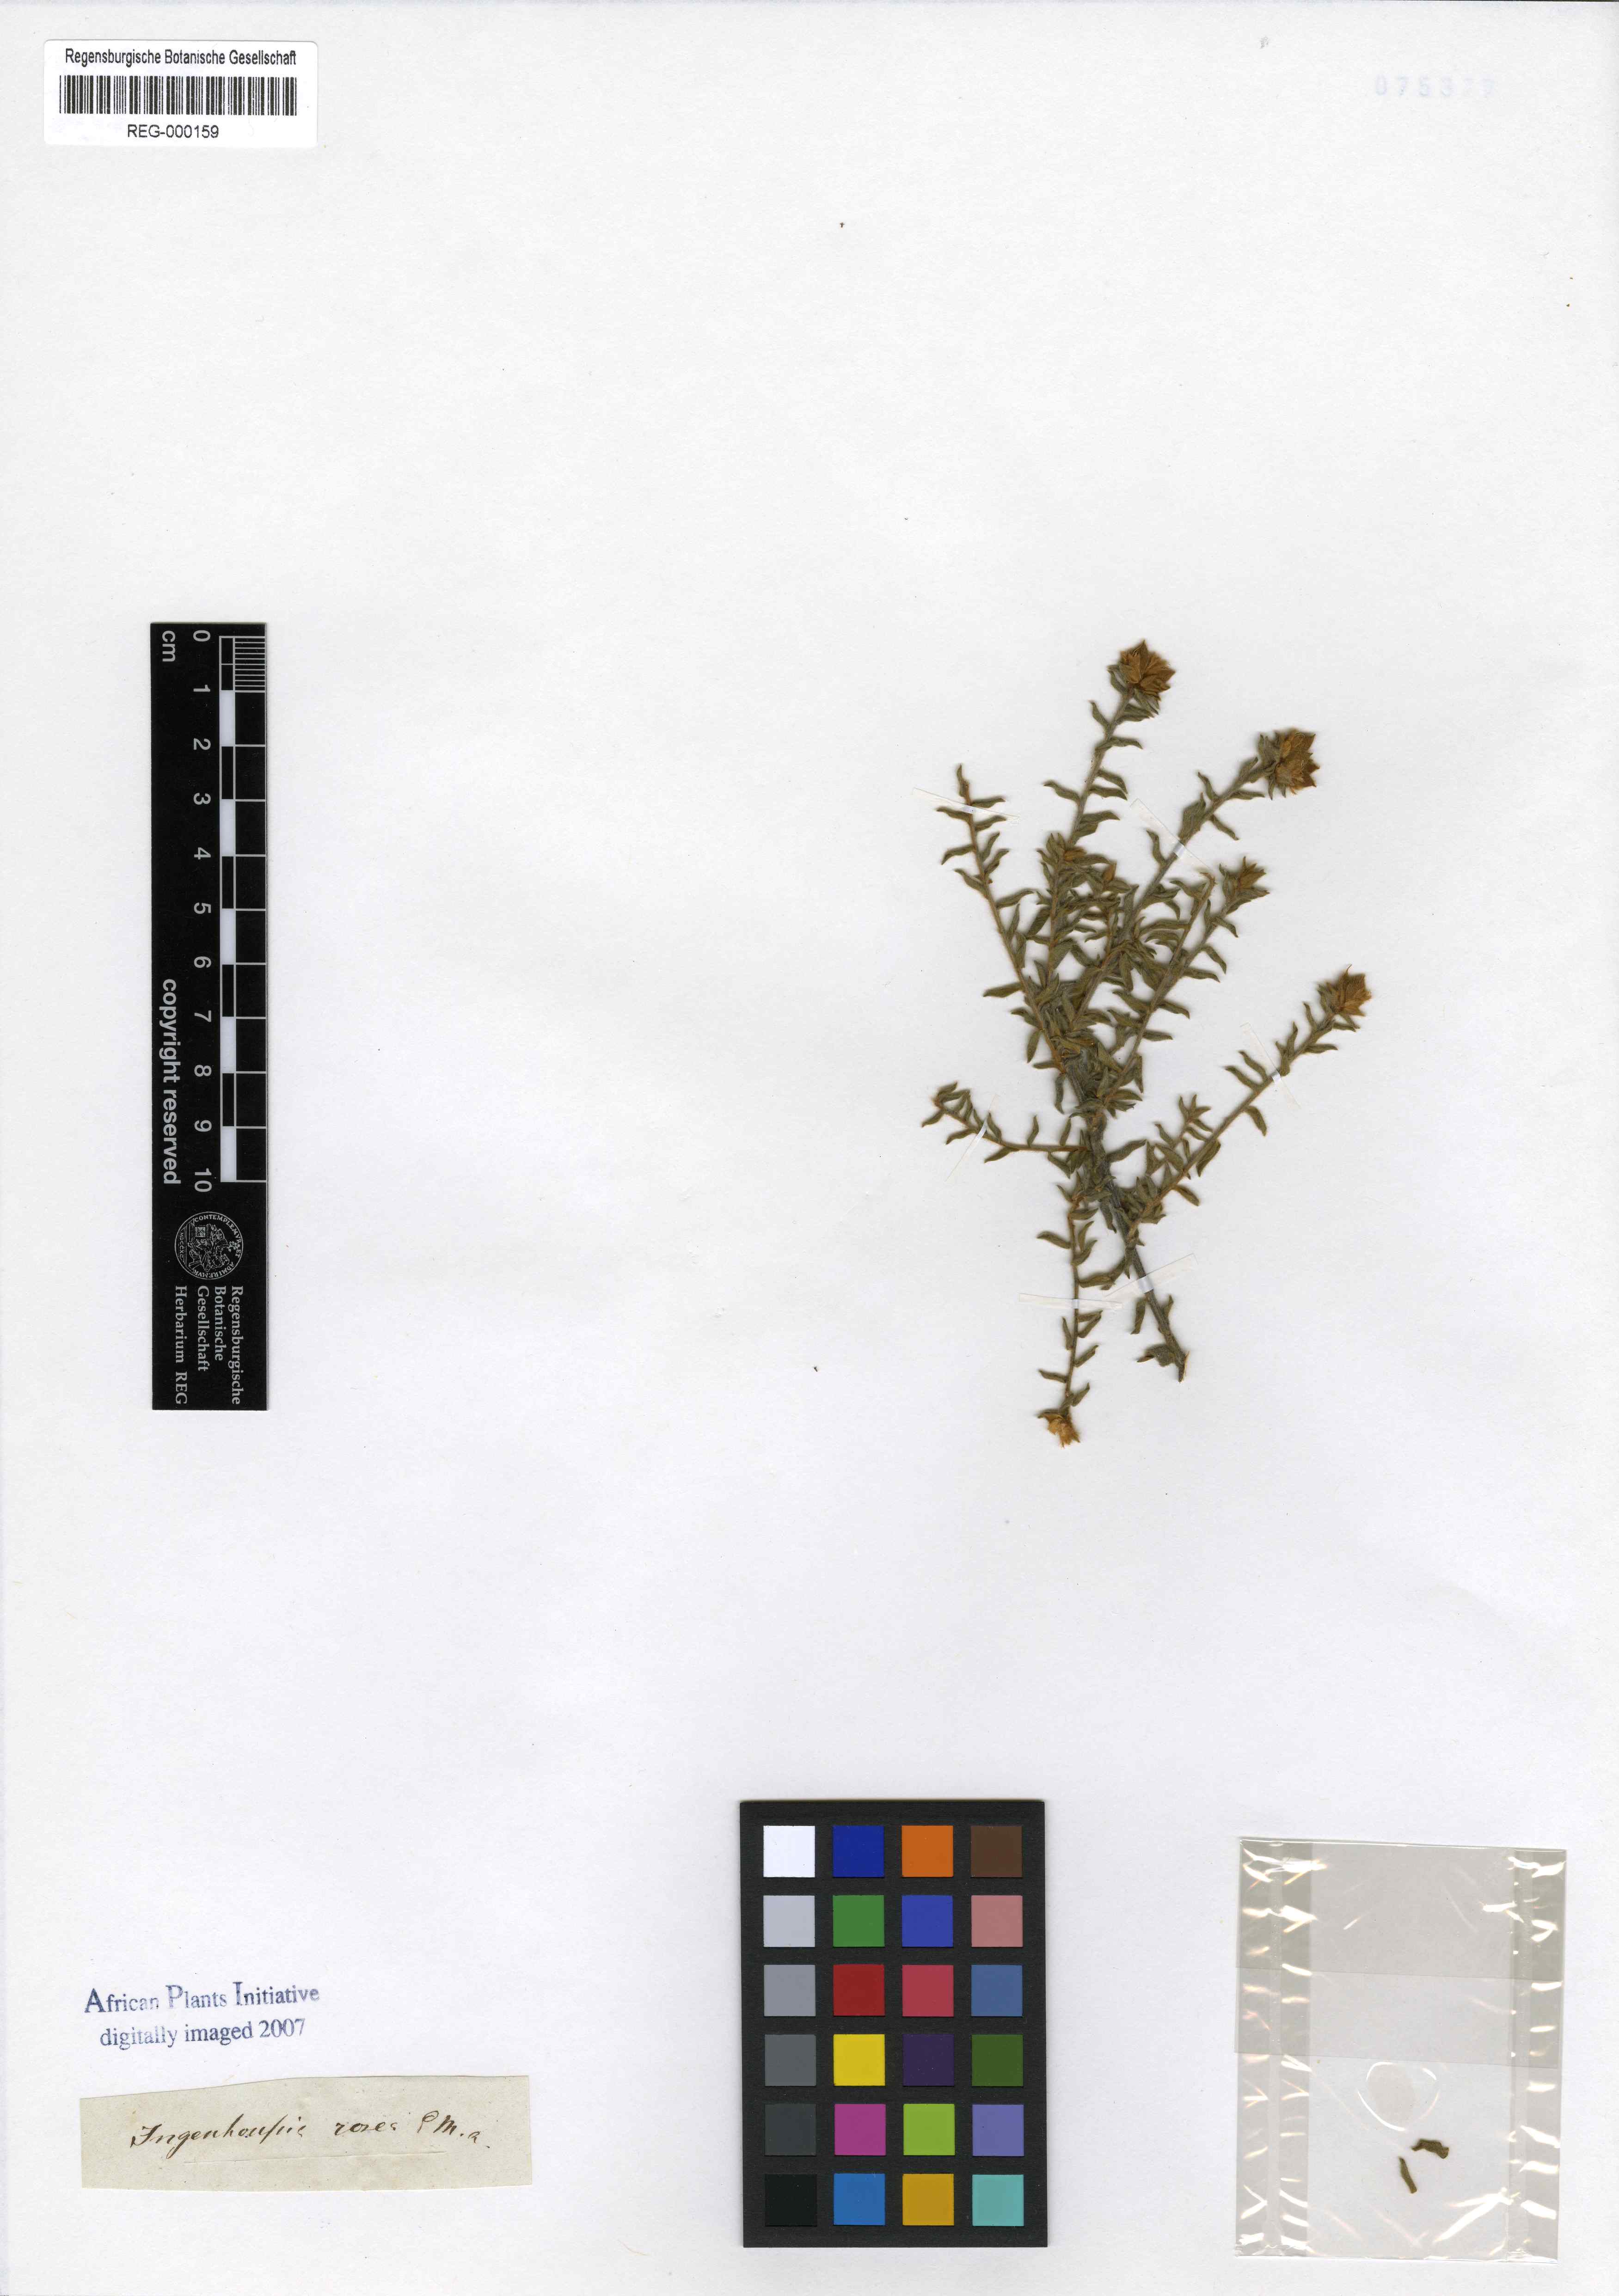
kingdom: Plantae
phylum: Tracheophyta
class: Magnoliopsida
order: Fabales
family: Fabaceae
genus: Amphithalea
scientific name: Amphithalea perplexa
